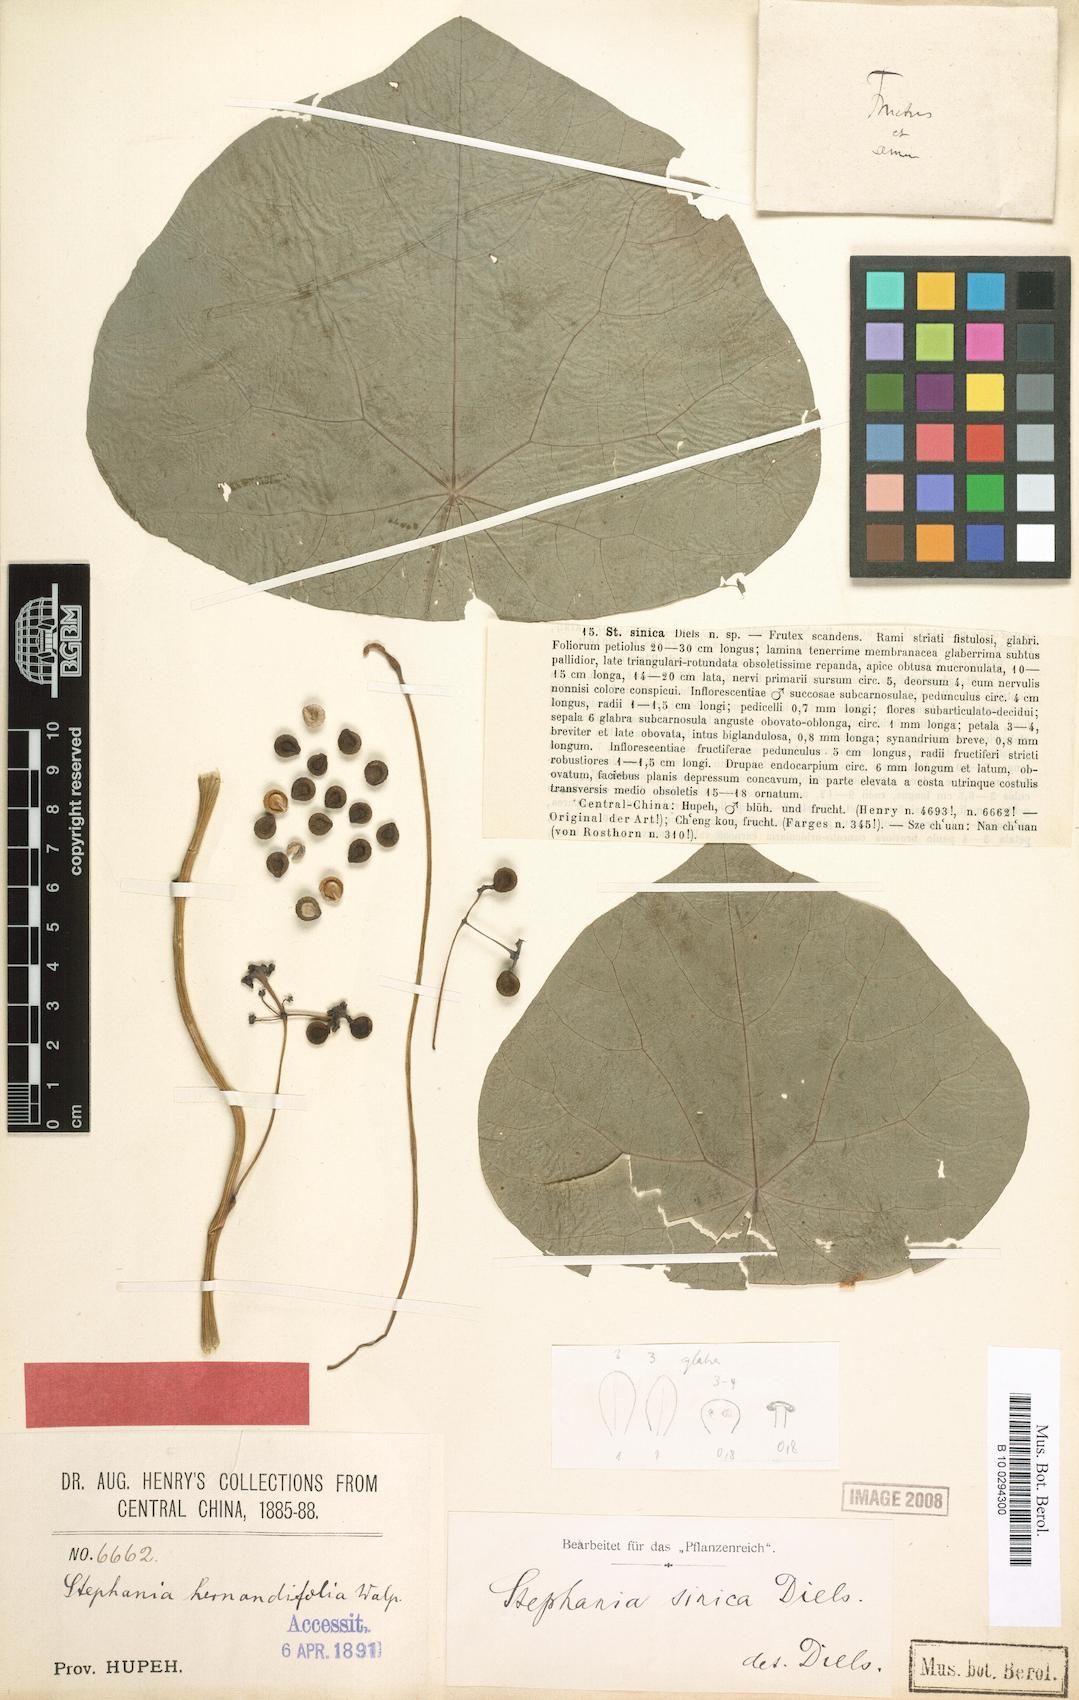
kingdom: Plantae
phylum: Tracheophyta
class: Magnoliopsida
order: Ranunculales
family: Menispermaceae
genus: Stephania
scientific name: Stephania sinica
